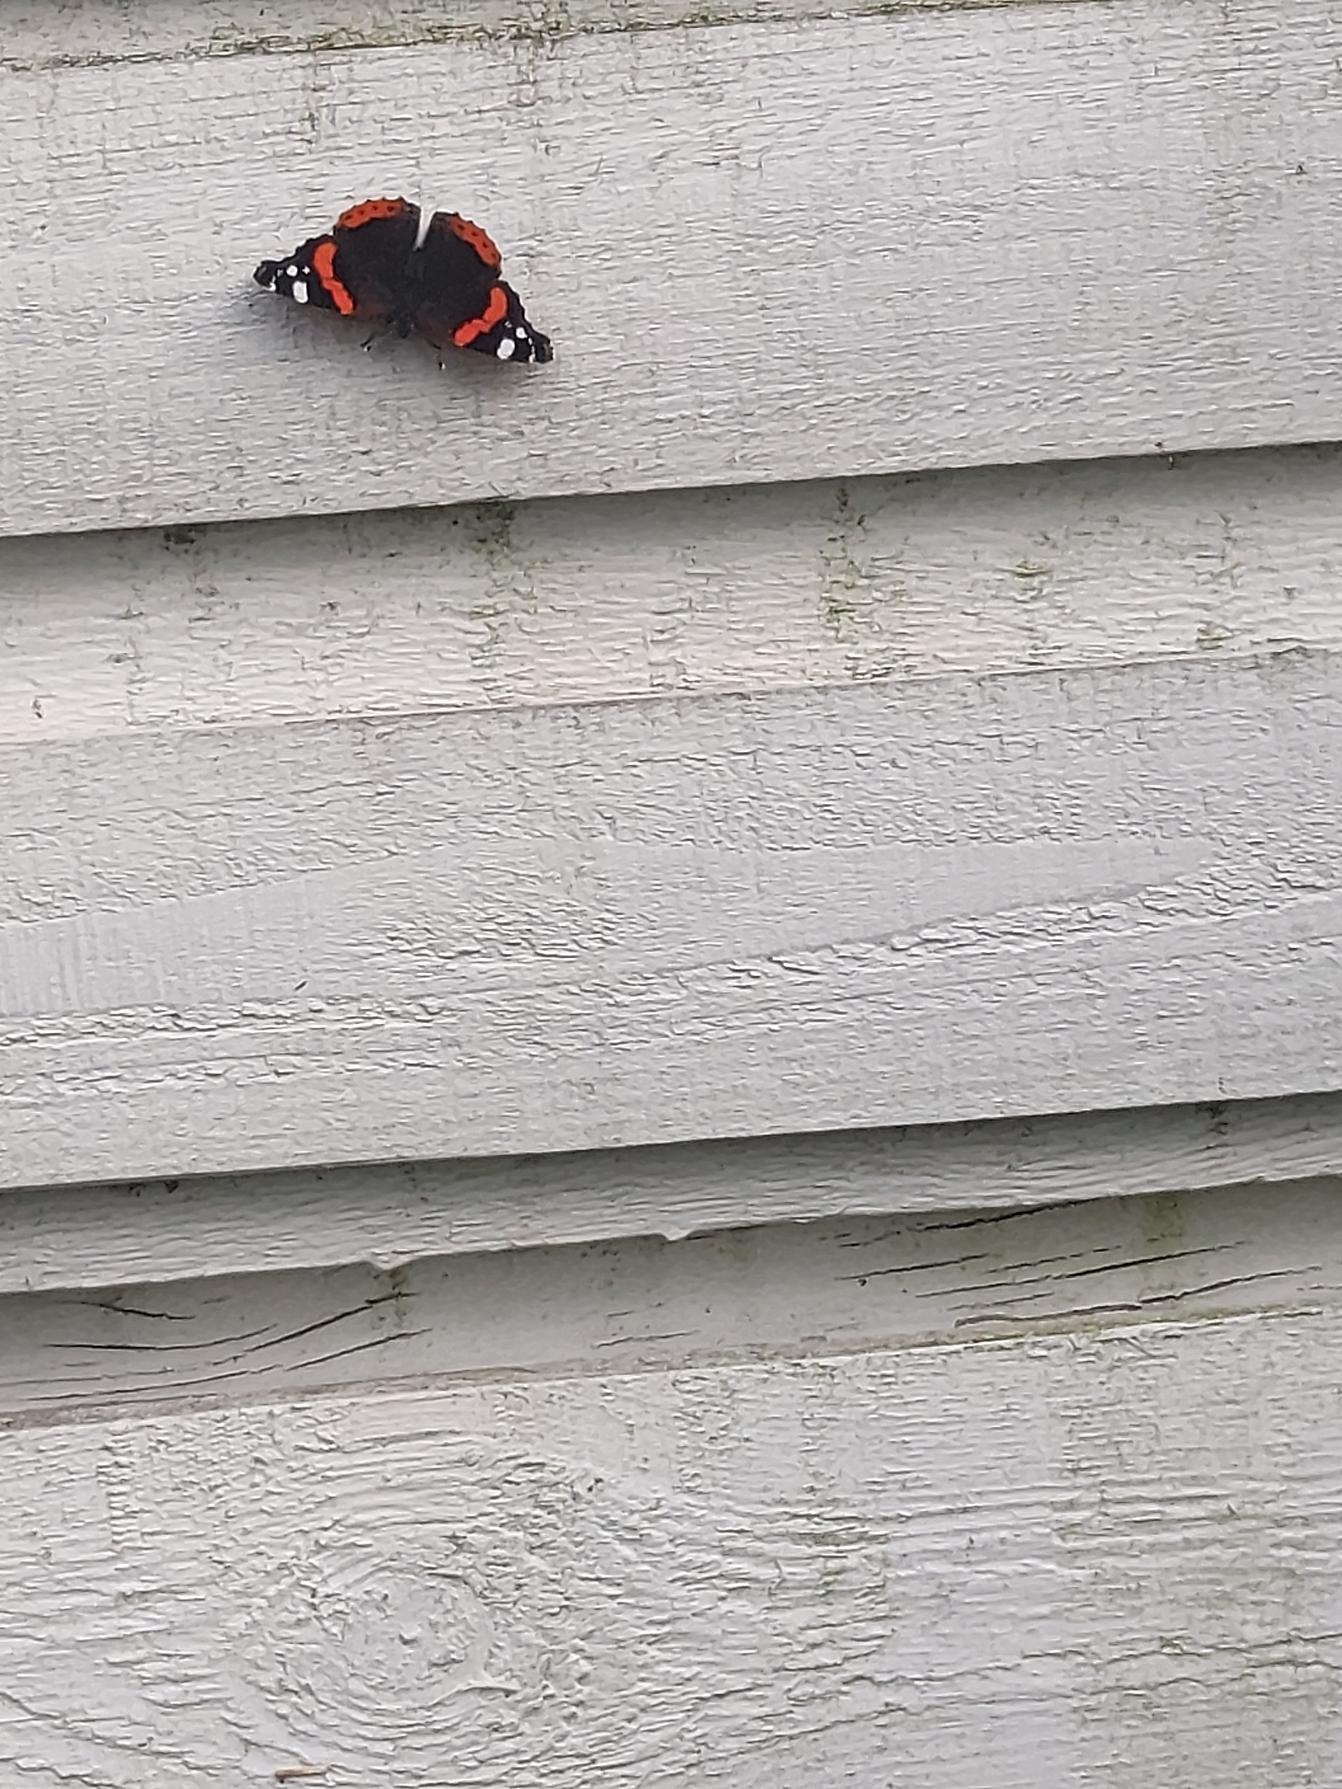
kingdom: Animalia
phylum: Arthropoda
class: Insecta
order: Lepidoptera
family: Nymphalidae
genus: Vanessa
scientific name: Vanessa atalanta
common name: Admiral
